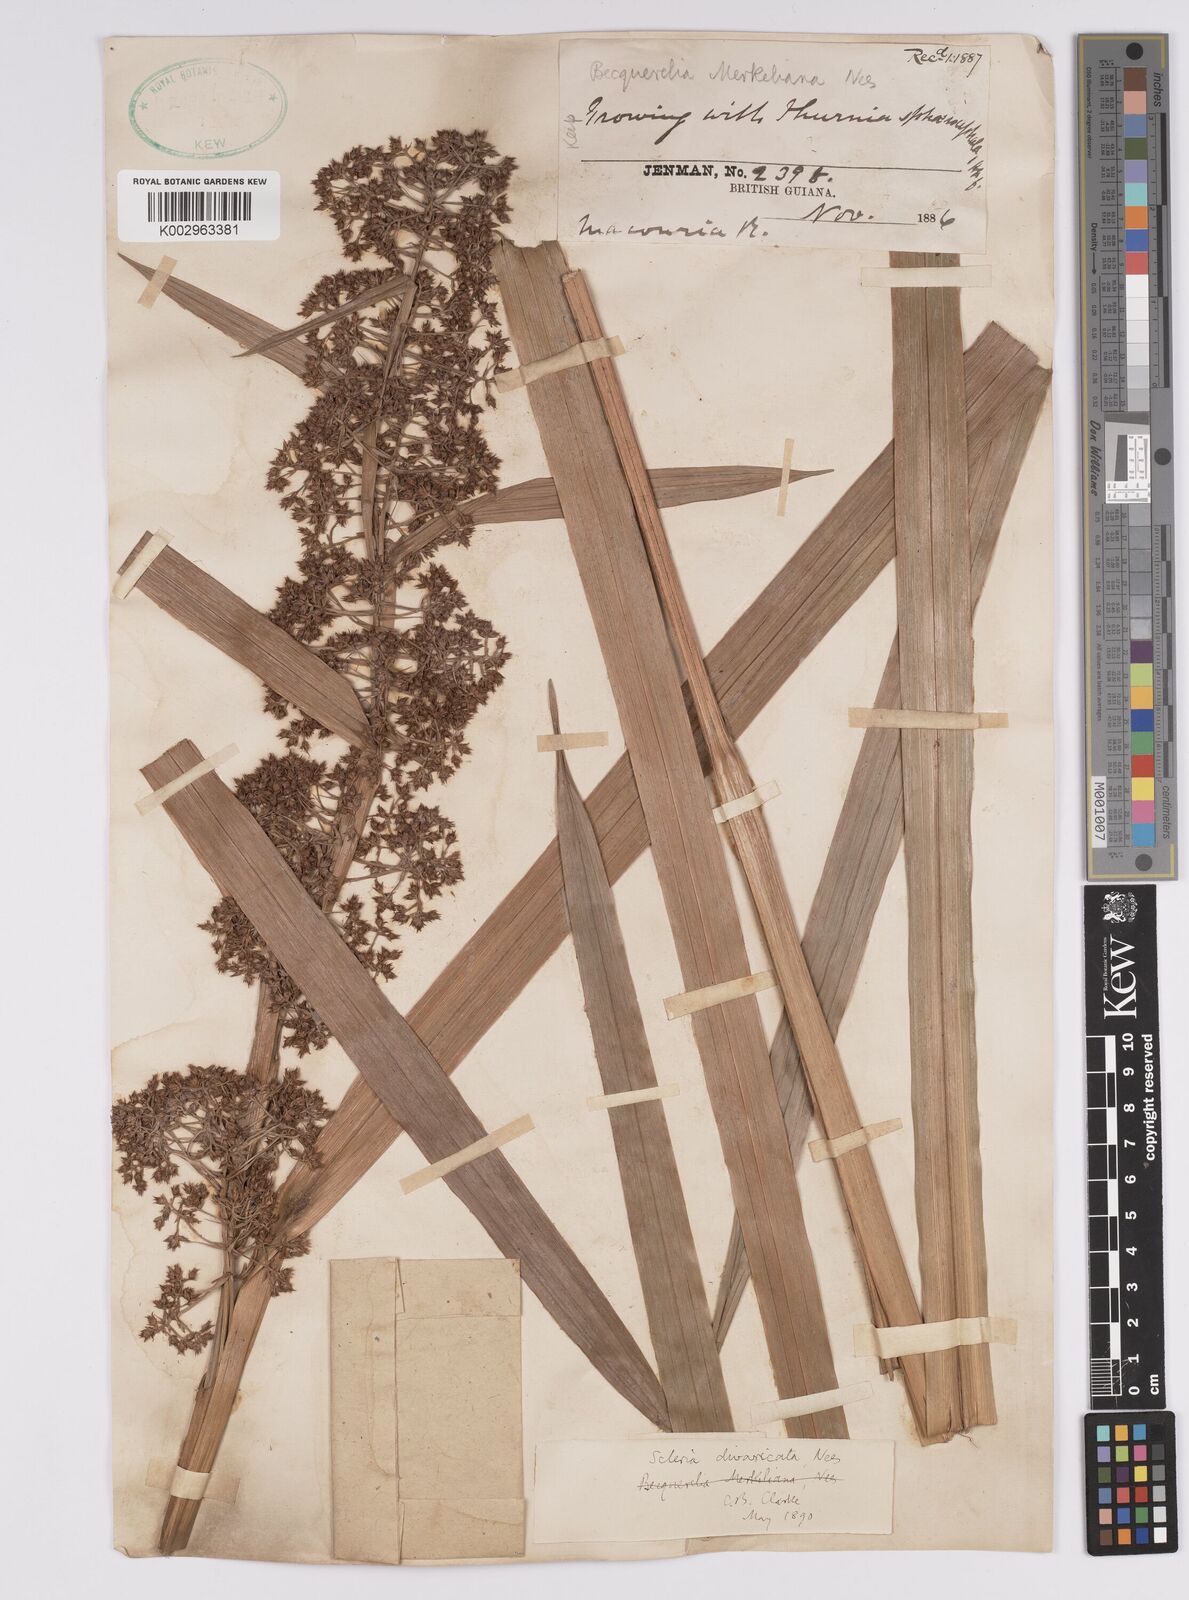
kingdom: Plantae
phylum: Tracheophyta
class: Liliopsida
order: Poales
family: Cyperaceae
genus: Becquerelia
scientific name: Becquerelia merkeliana
